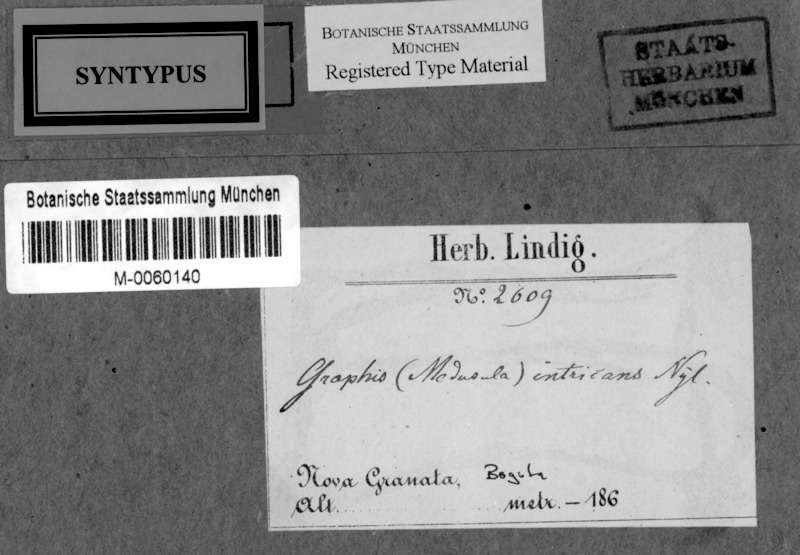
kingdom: Fungi
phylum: Ascomycota
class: Lecanoromycetes
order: Ostropales
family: Graphidaceae
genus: Sarcographa
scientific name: Sarcographa intricans
